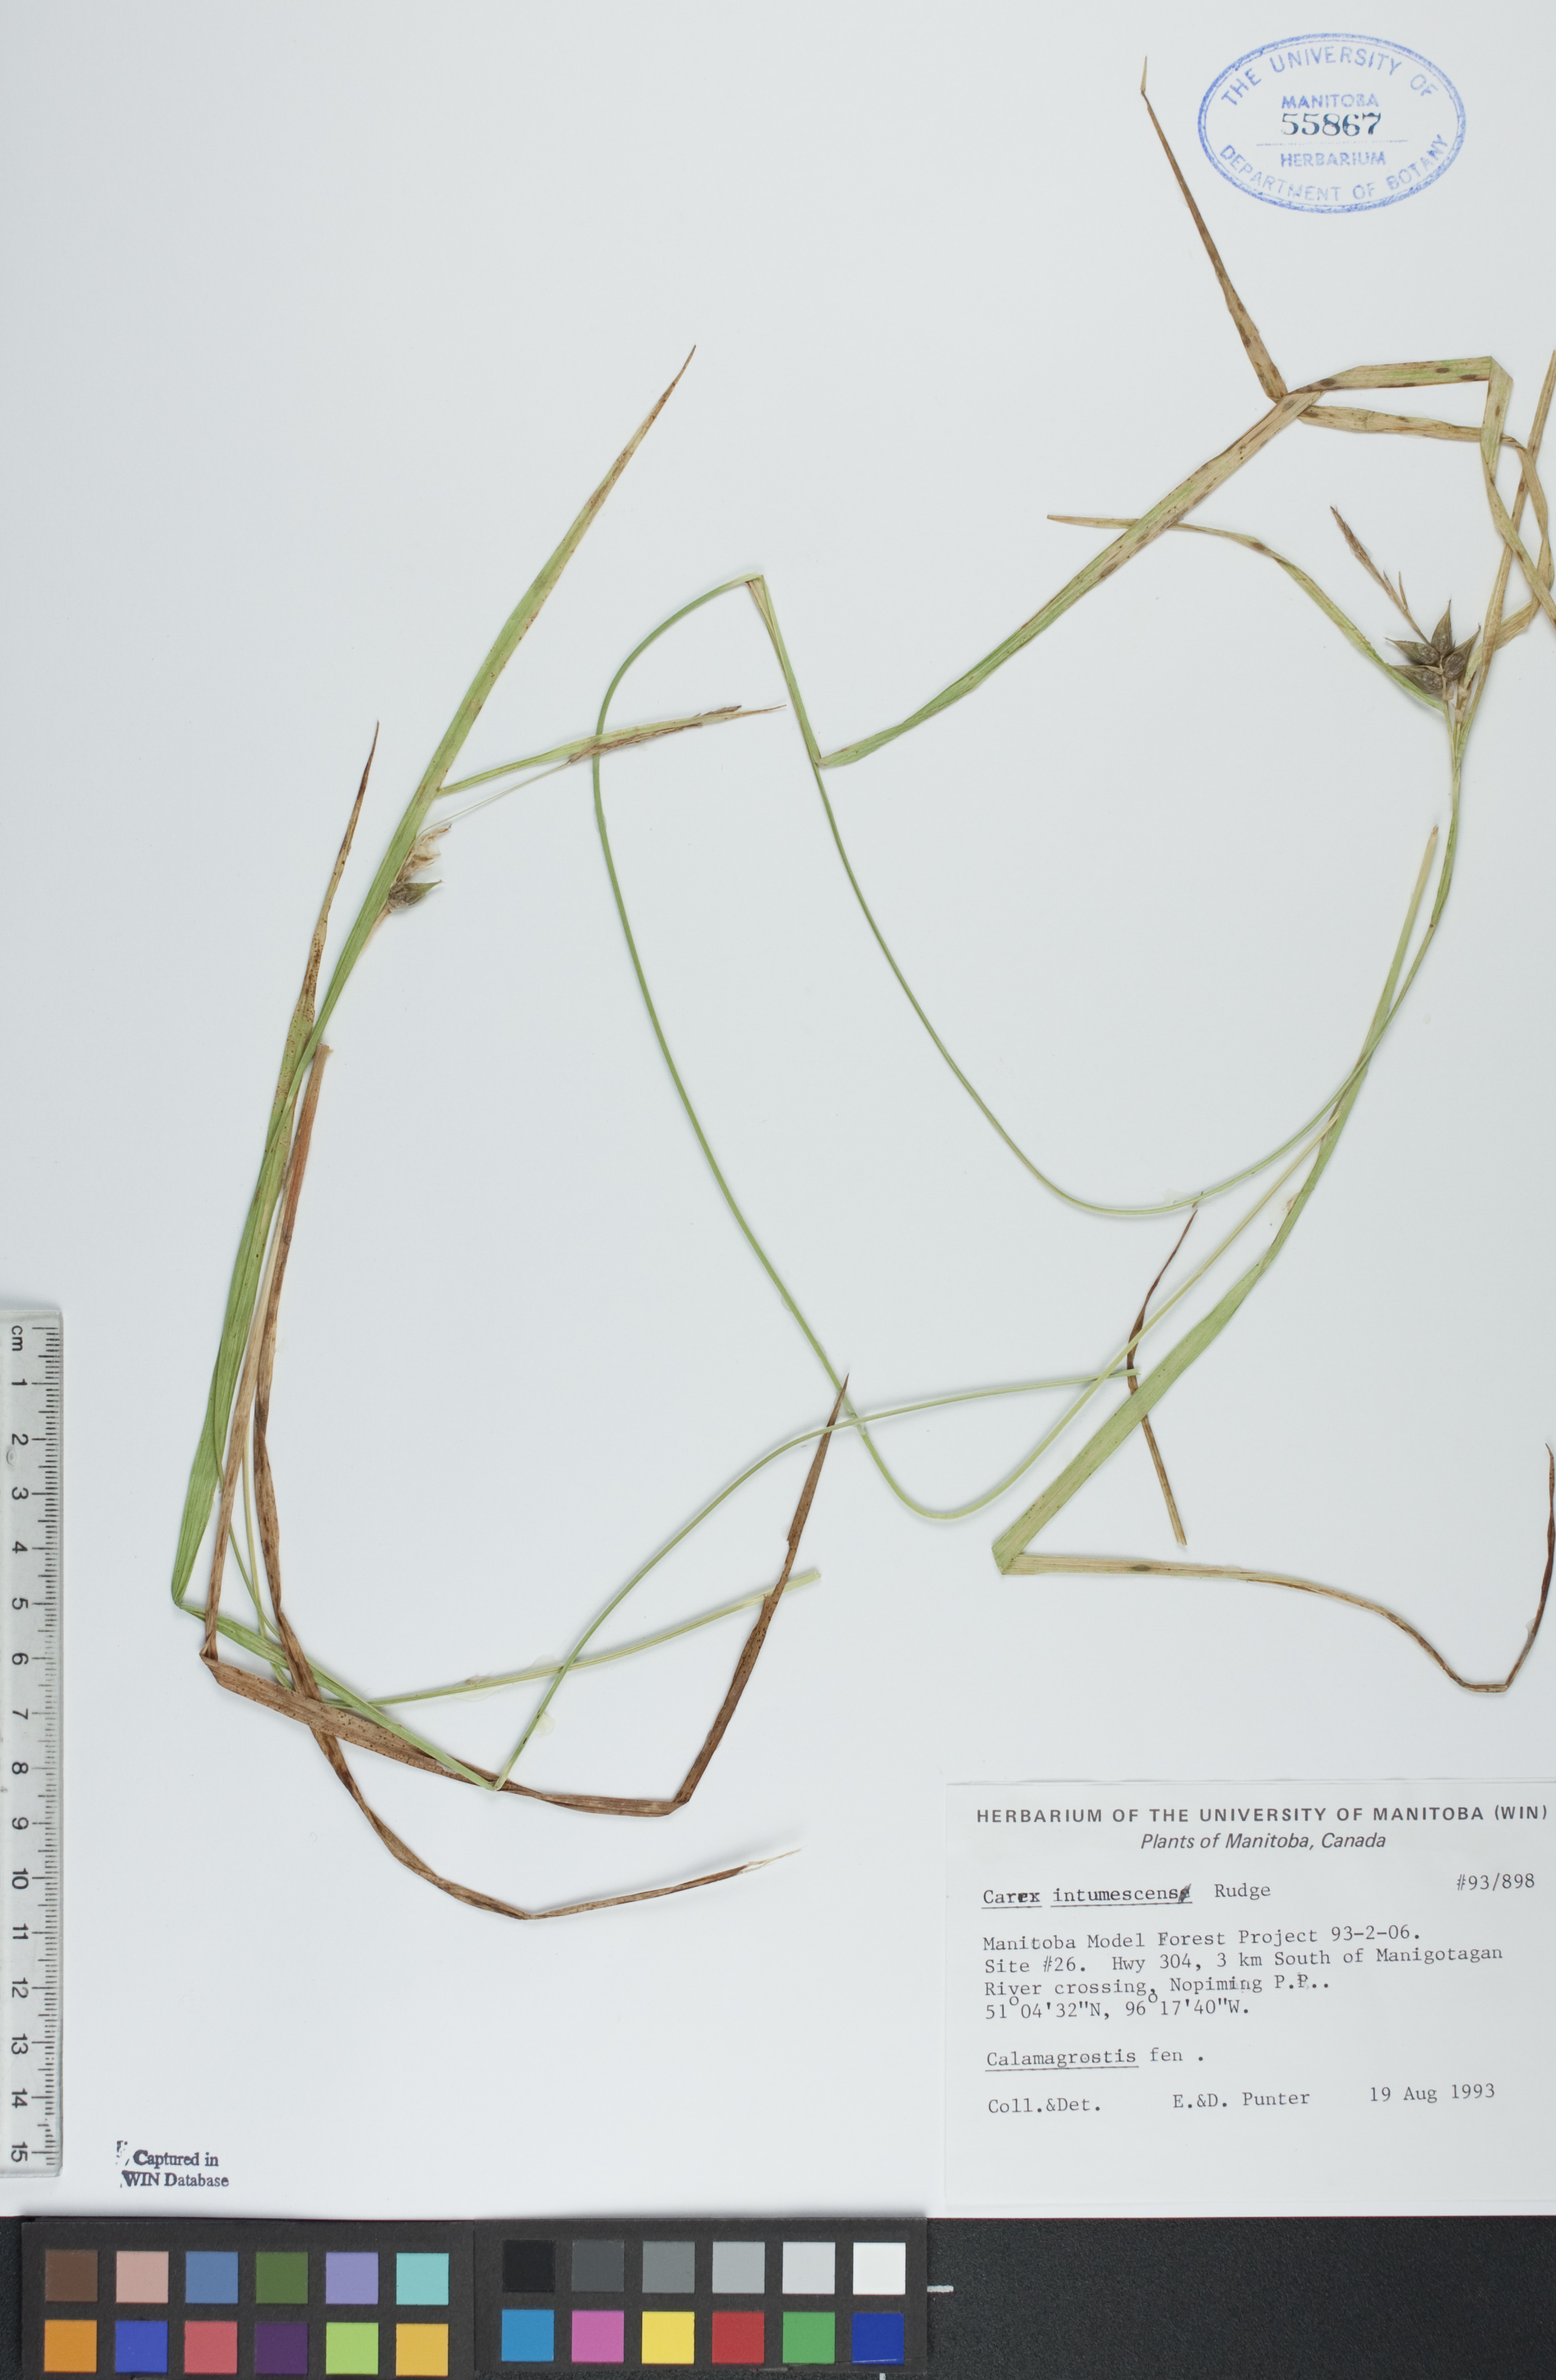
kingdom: Plantae
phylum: Tracheophyta
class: Liliopsida
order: Poales
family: Cyperaceae
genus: Carex
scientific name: Carex intumescens
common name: Greater bladder sedge
